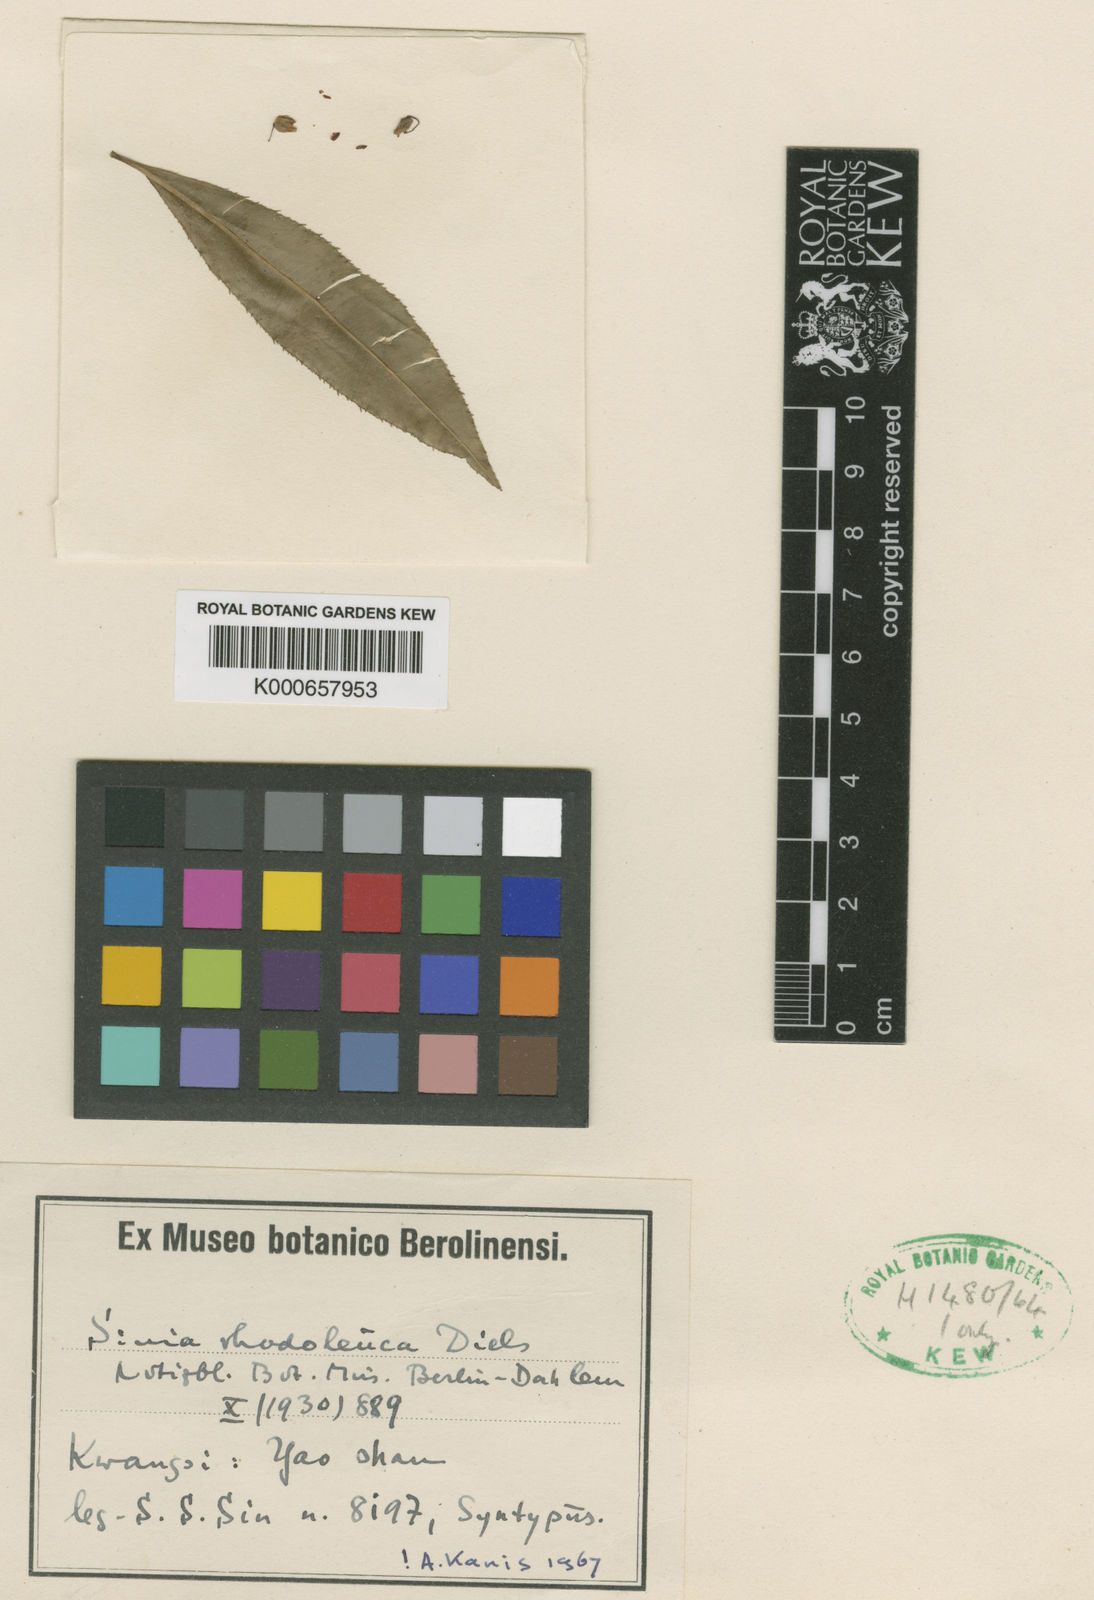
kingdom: Plantae
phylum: Tracheophyta
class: Magnoliopsida
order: Malpighiales
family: Ochnaceae
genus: Sauvagesia
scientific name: Sauvagesia rhodoleuca
